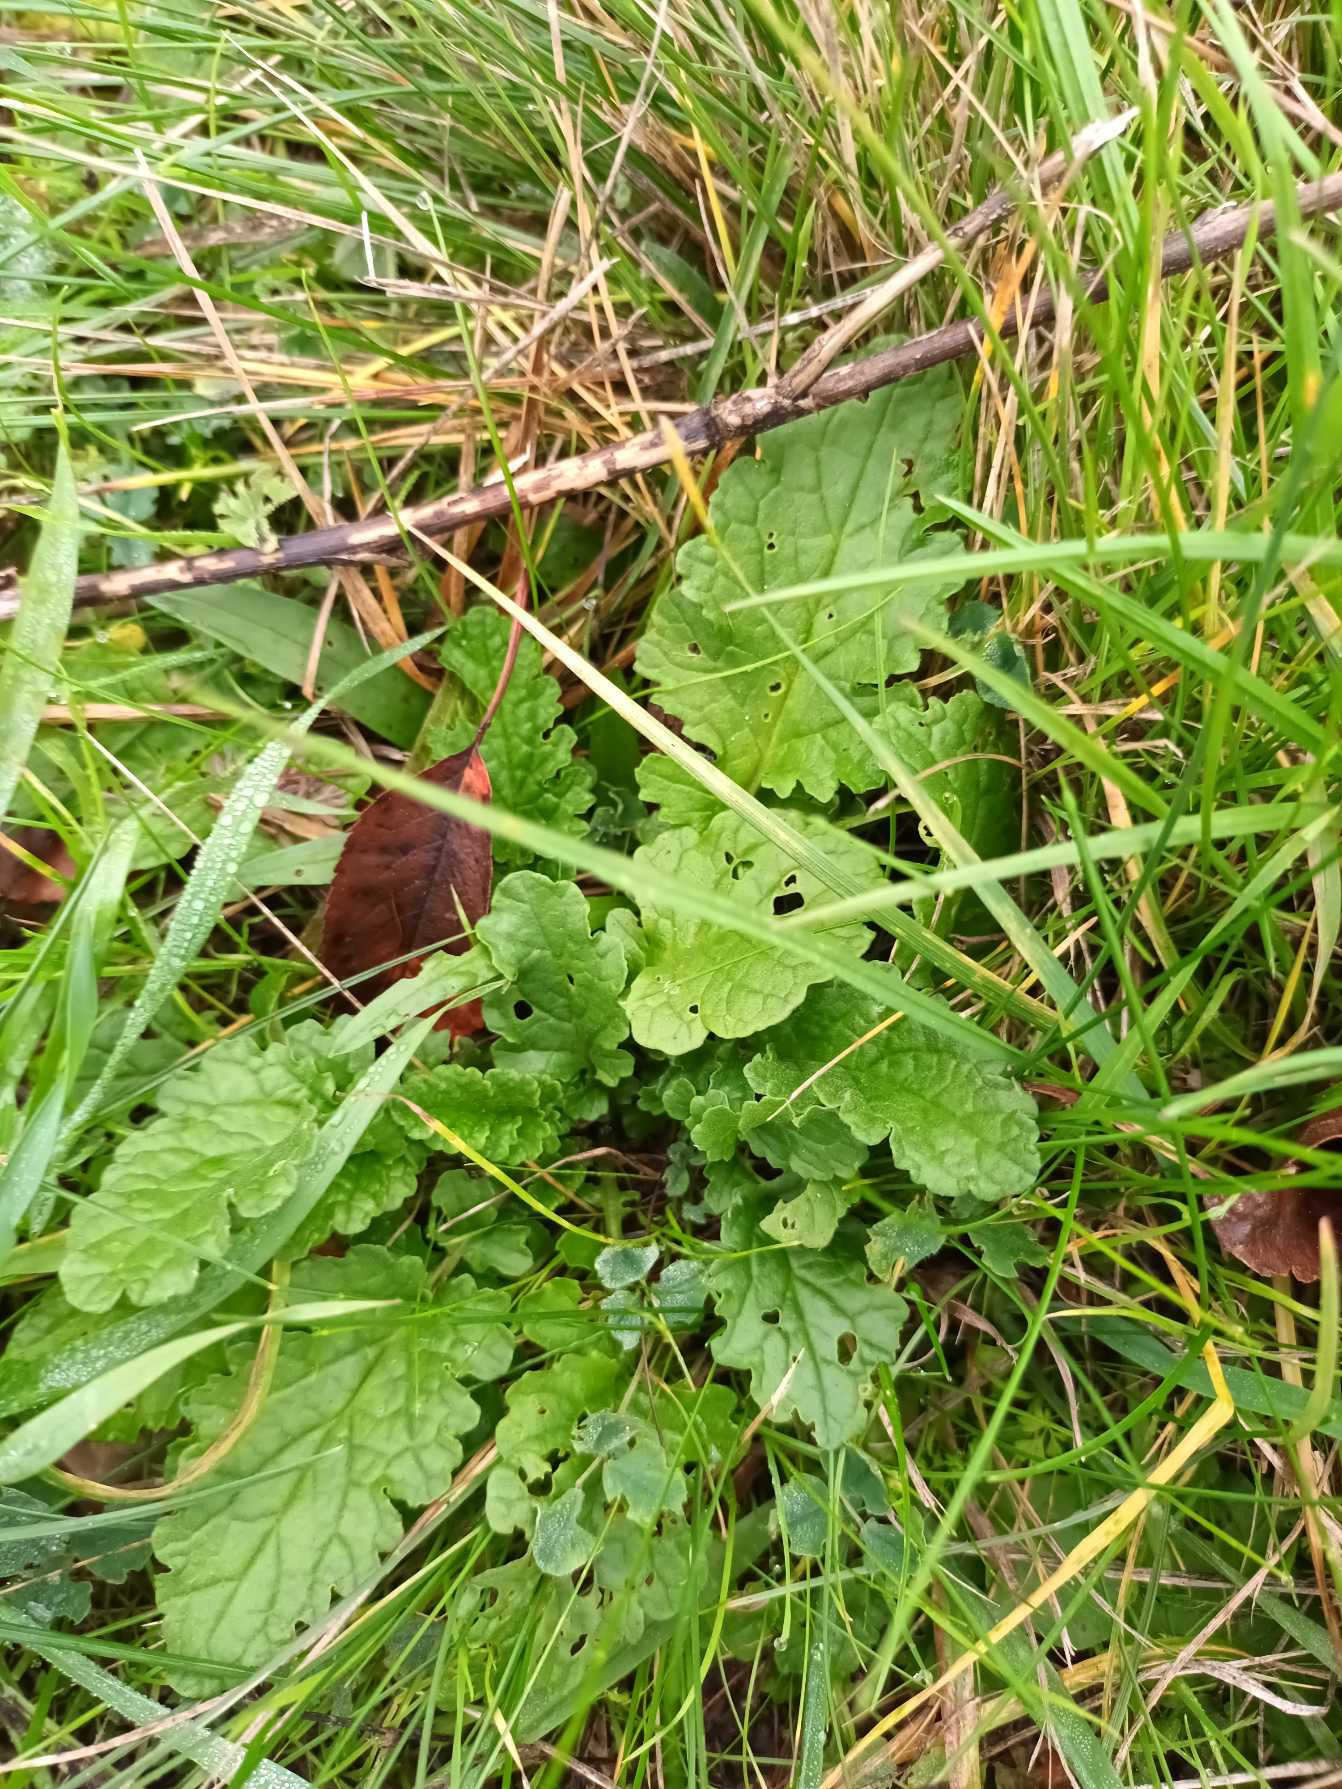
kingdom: Plantae
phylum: Tracheophyta
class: Magnoliopsida
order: Asterales
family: Asteraceae
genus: Jacobaea
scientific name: Jacobaea vulgaris
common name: Eng-brandbæger
